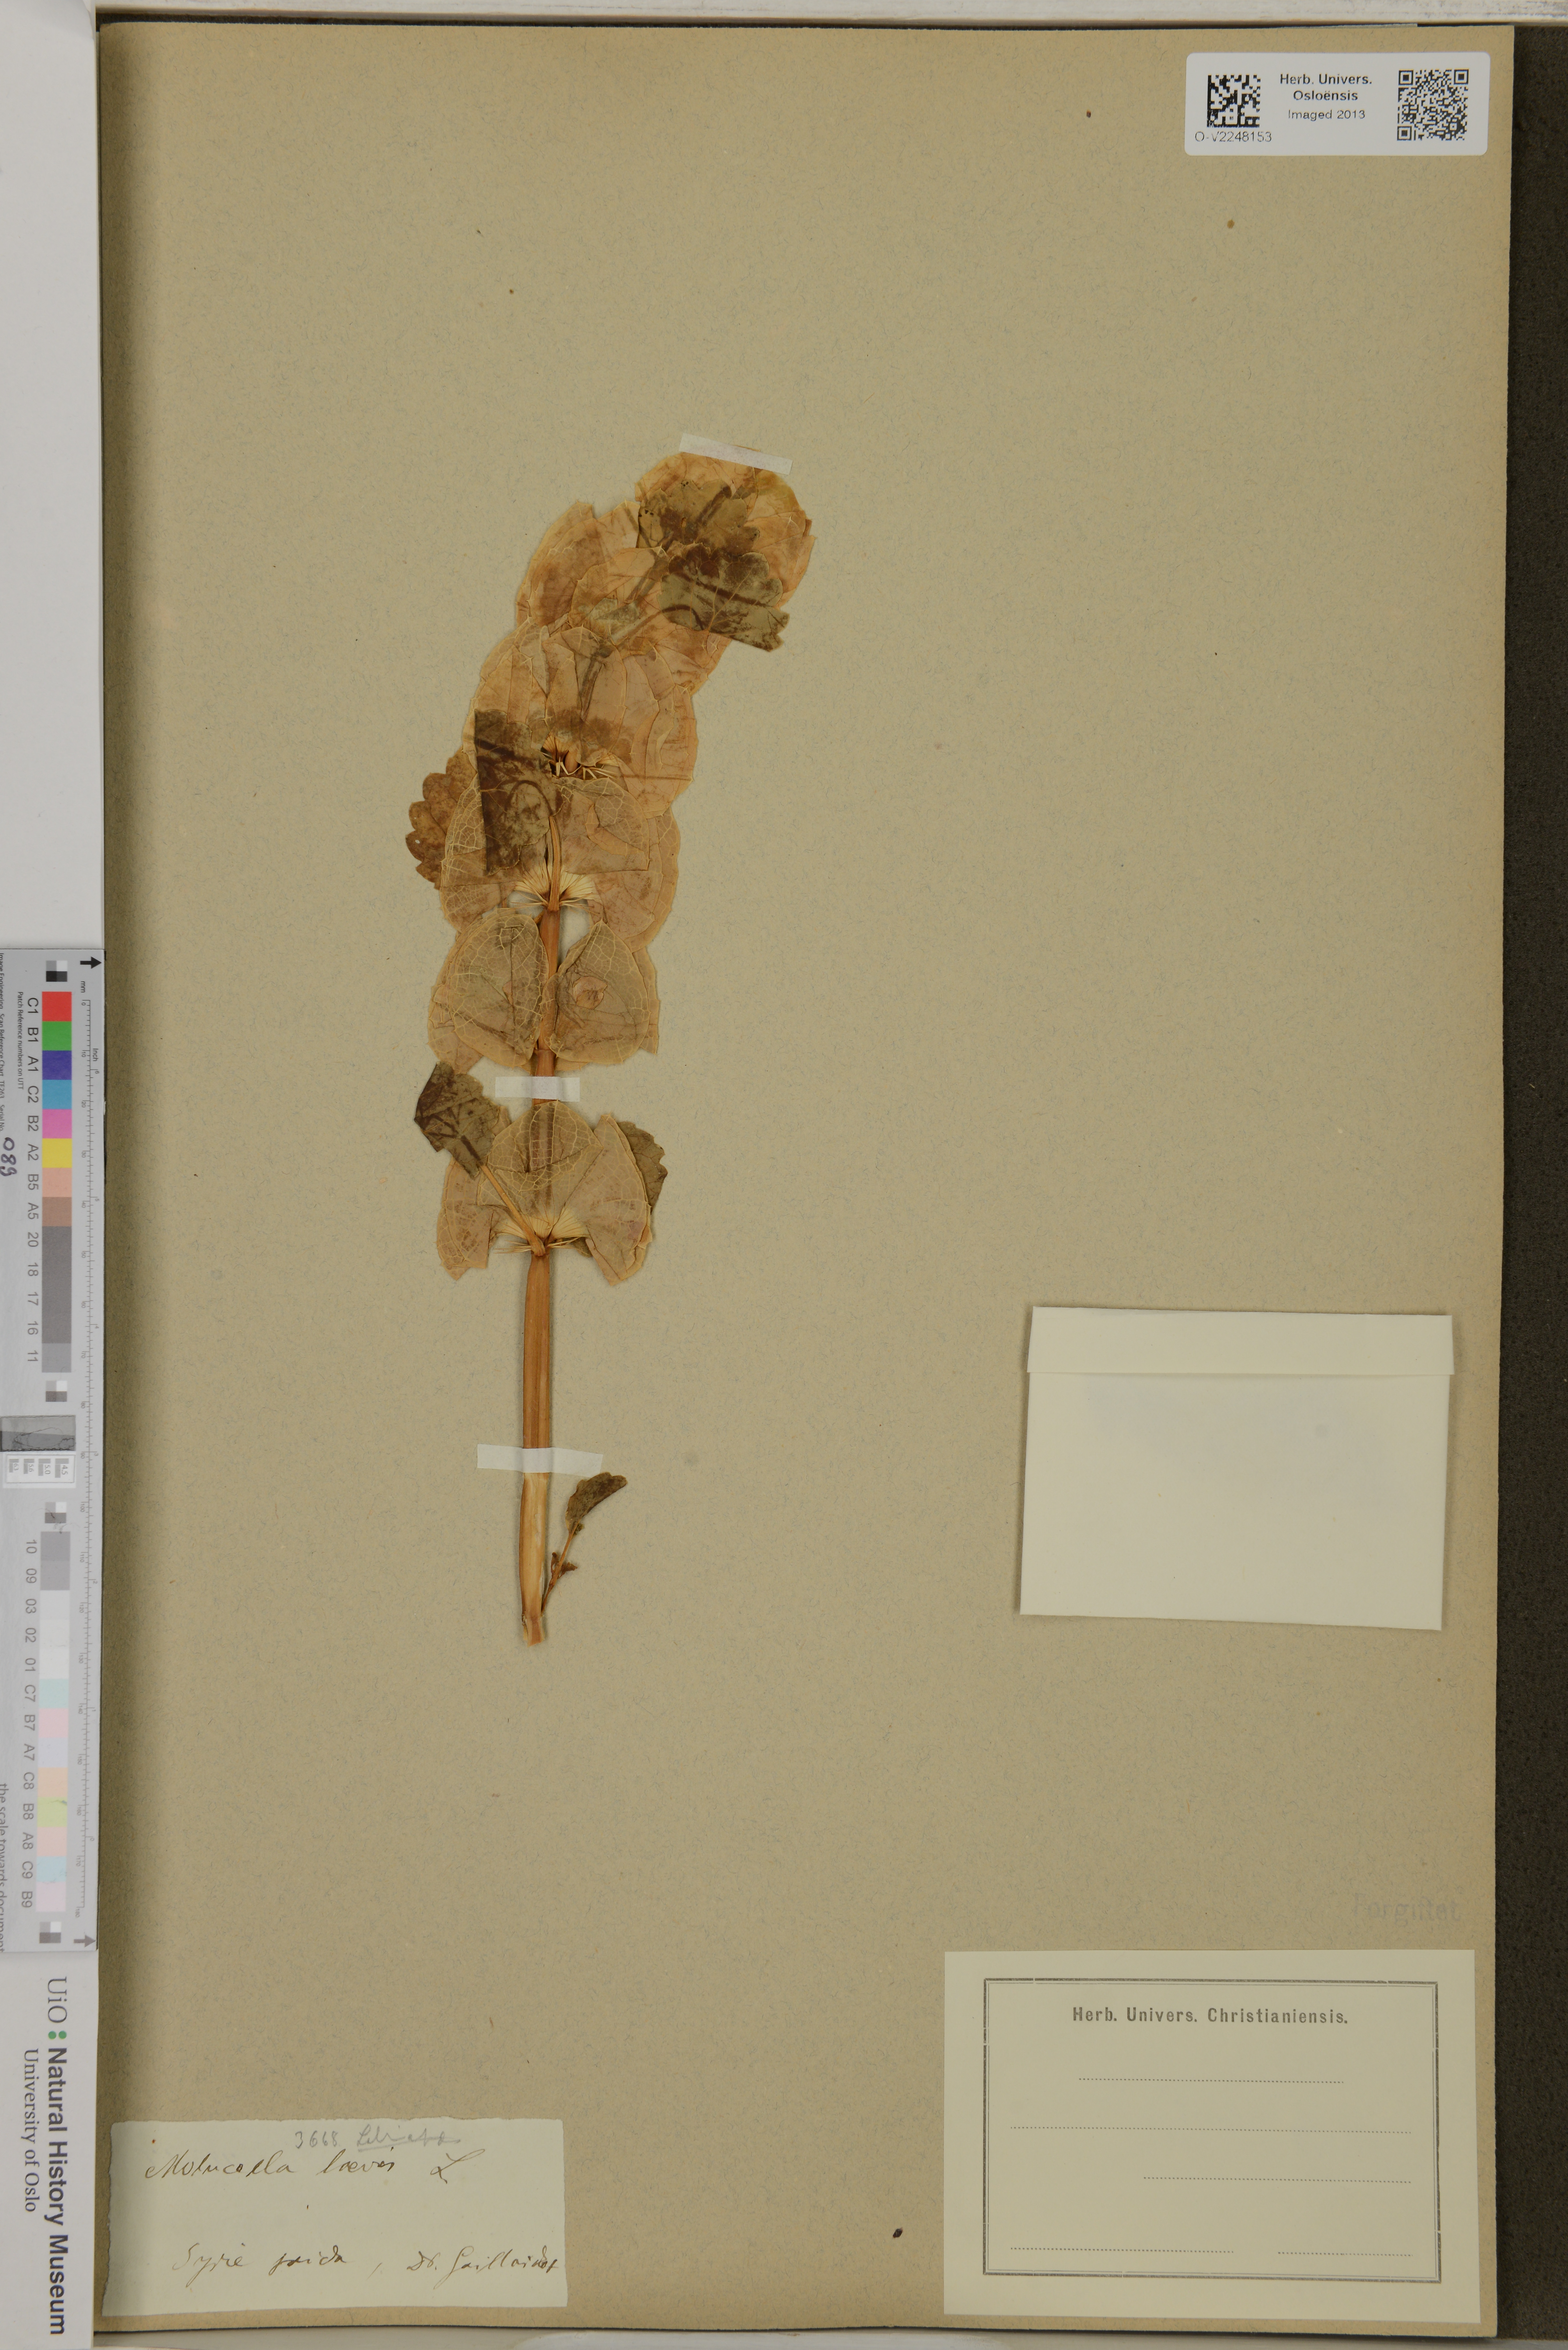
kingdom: Plantae
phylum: Tracheophyta
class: Magnoliopsida
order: Lamiales
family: Lamiaceae
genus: Moluccella
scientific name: Moluccella laevis
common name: Shellflower
